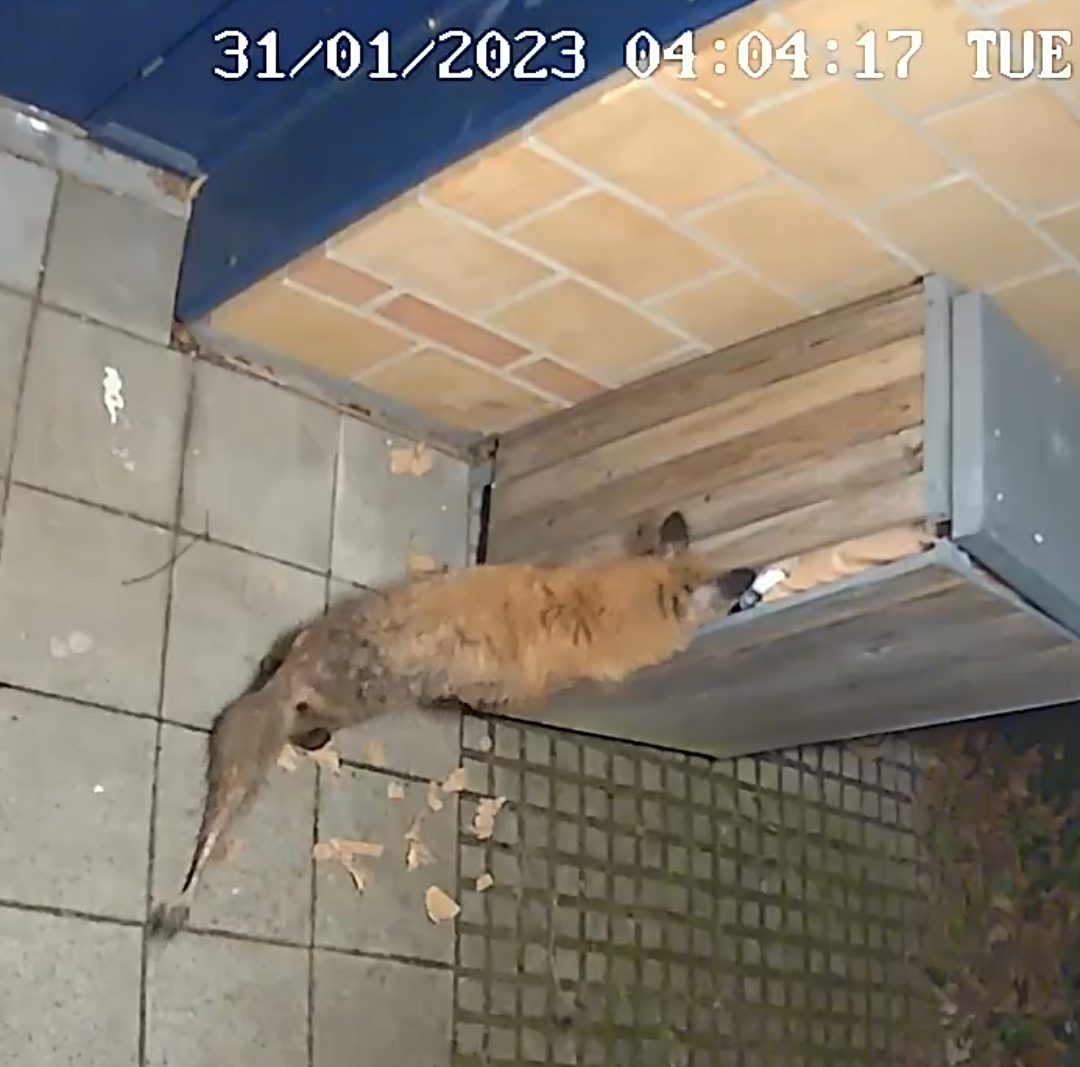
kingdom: Animalia
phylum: Chordata
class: Mammalia
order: Carnivora
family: Canidae
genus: Vulpes
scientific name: Vulpes vulpes
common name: Ræv
